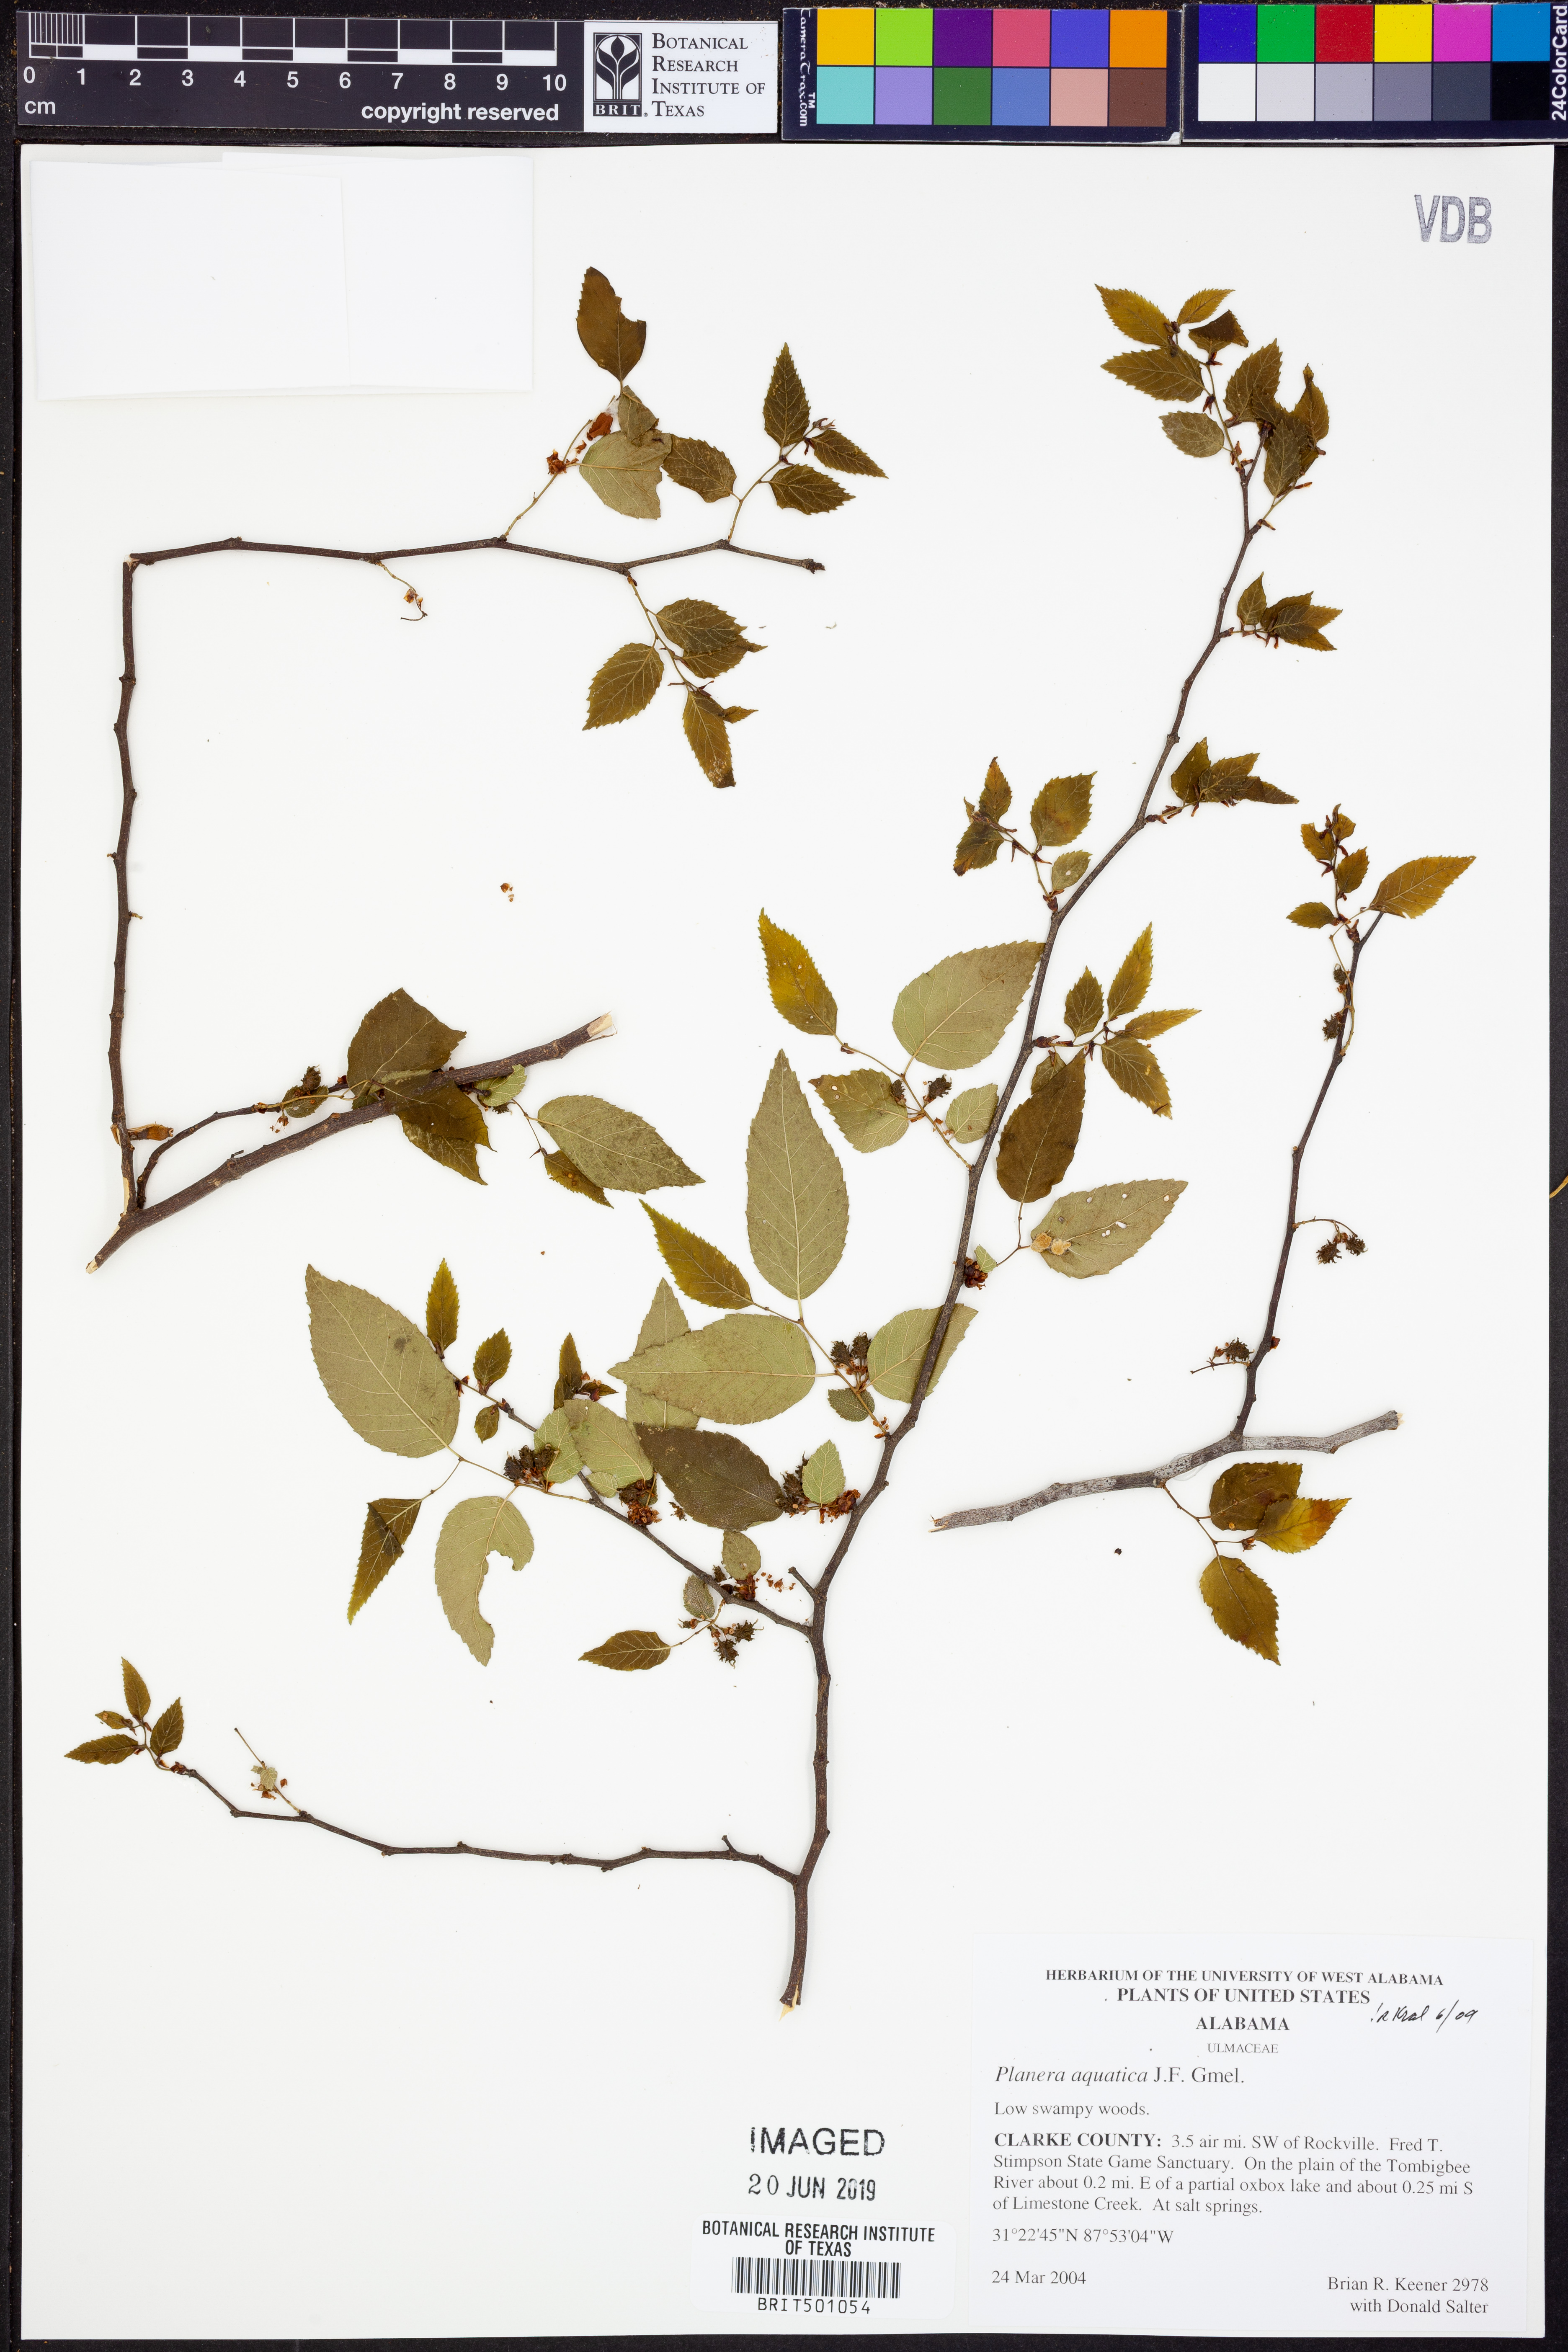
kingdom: Plantae
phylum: Tracheophyta
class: Magnoliopsida
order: Rosales
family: Ulmaceae
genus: Planera
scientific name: Planera aquatica
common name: Water-elm
